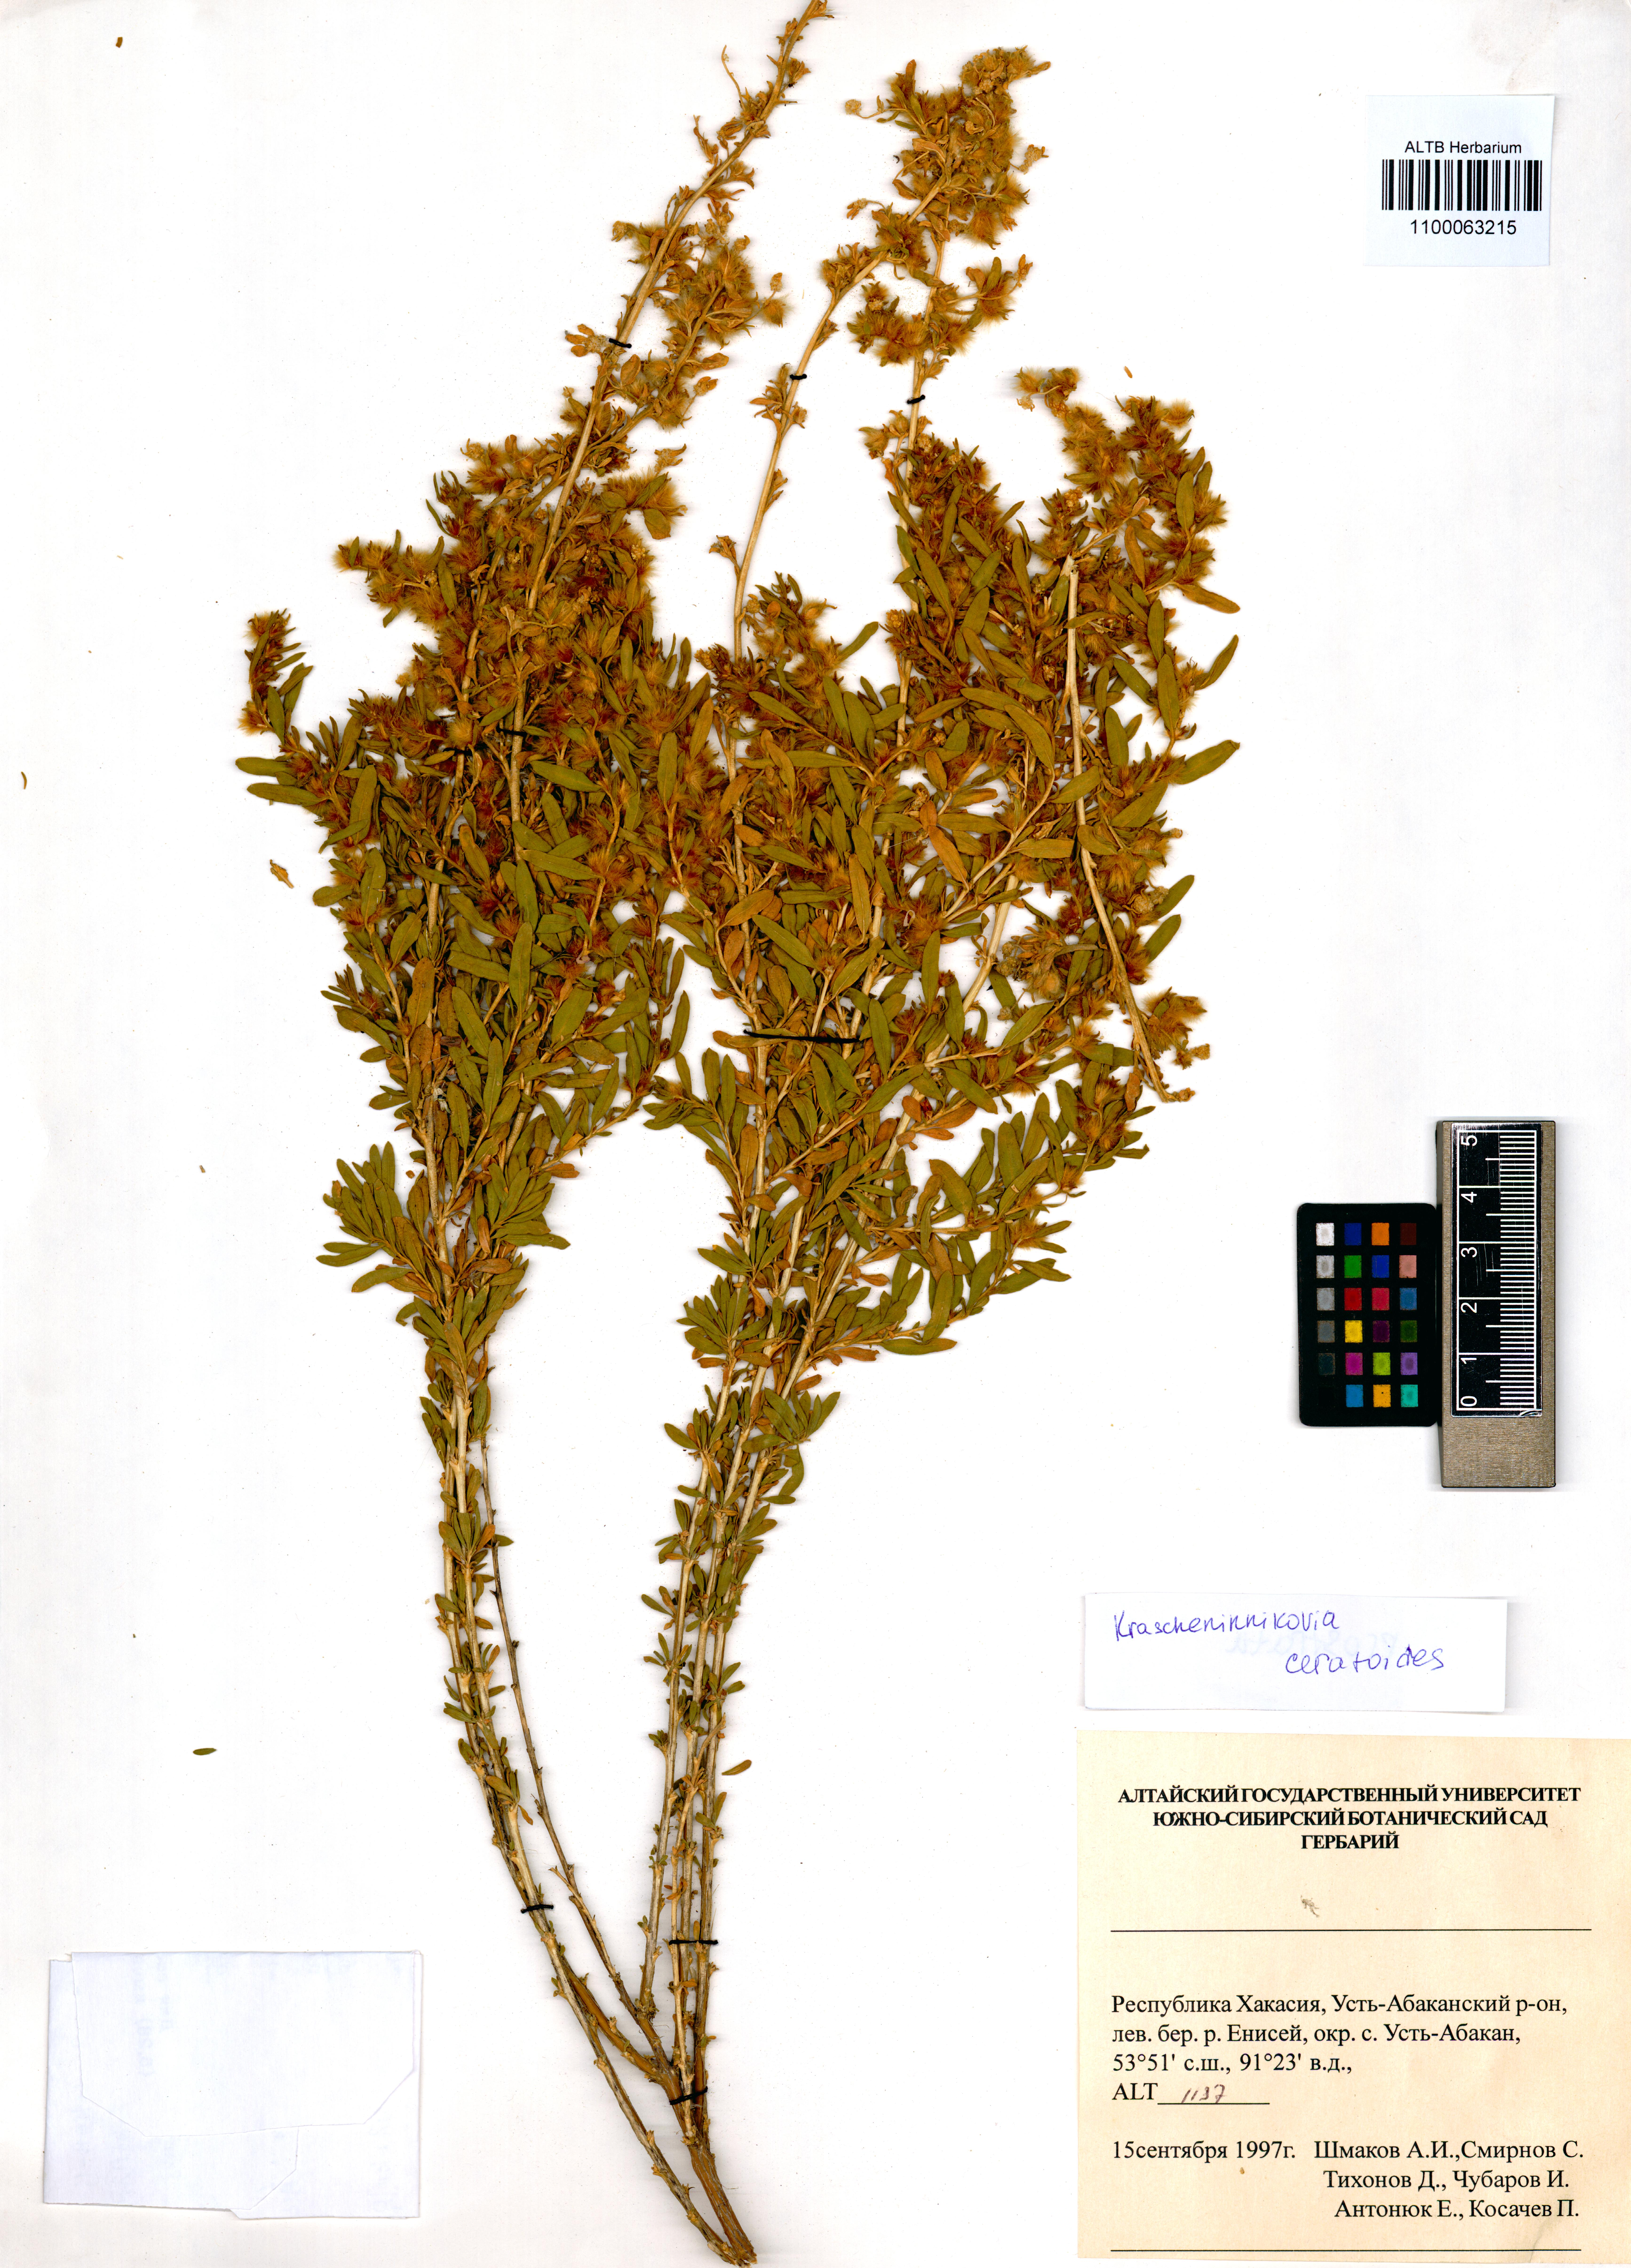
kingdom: Plantae
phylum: Tracheophyta
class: Magnoliopsida
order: Caryophyllales
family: Amaranthaceae
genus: Krascheninnikovia
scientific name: Krascheninnikovia ceratoides
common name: Pamirian winterfat
